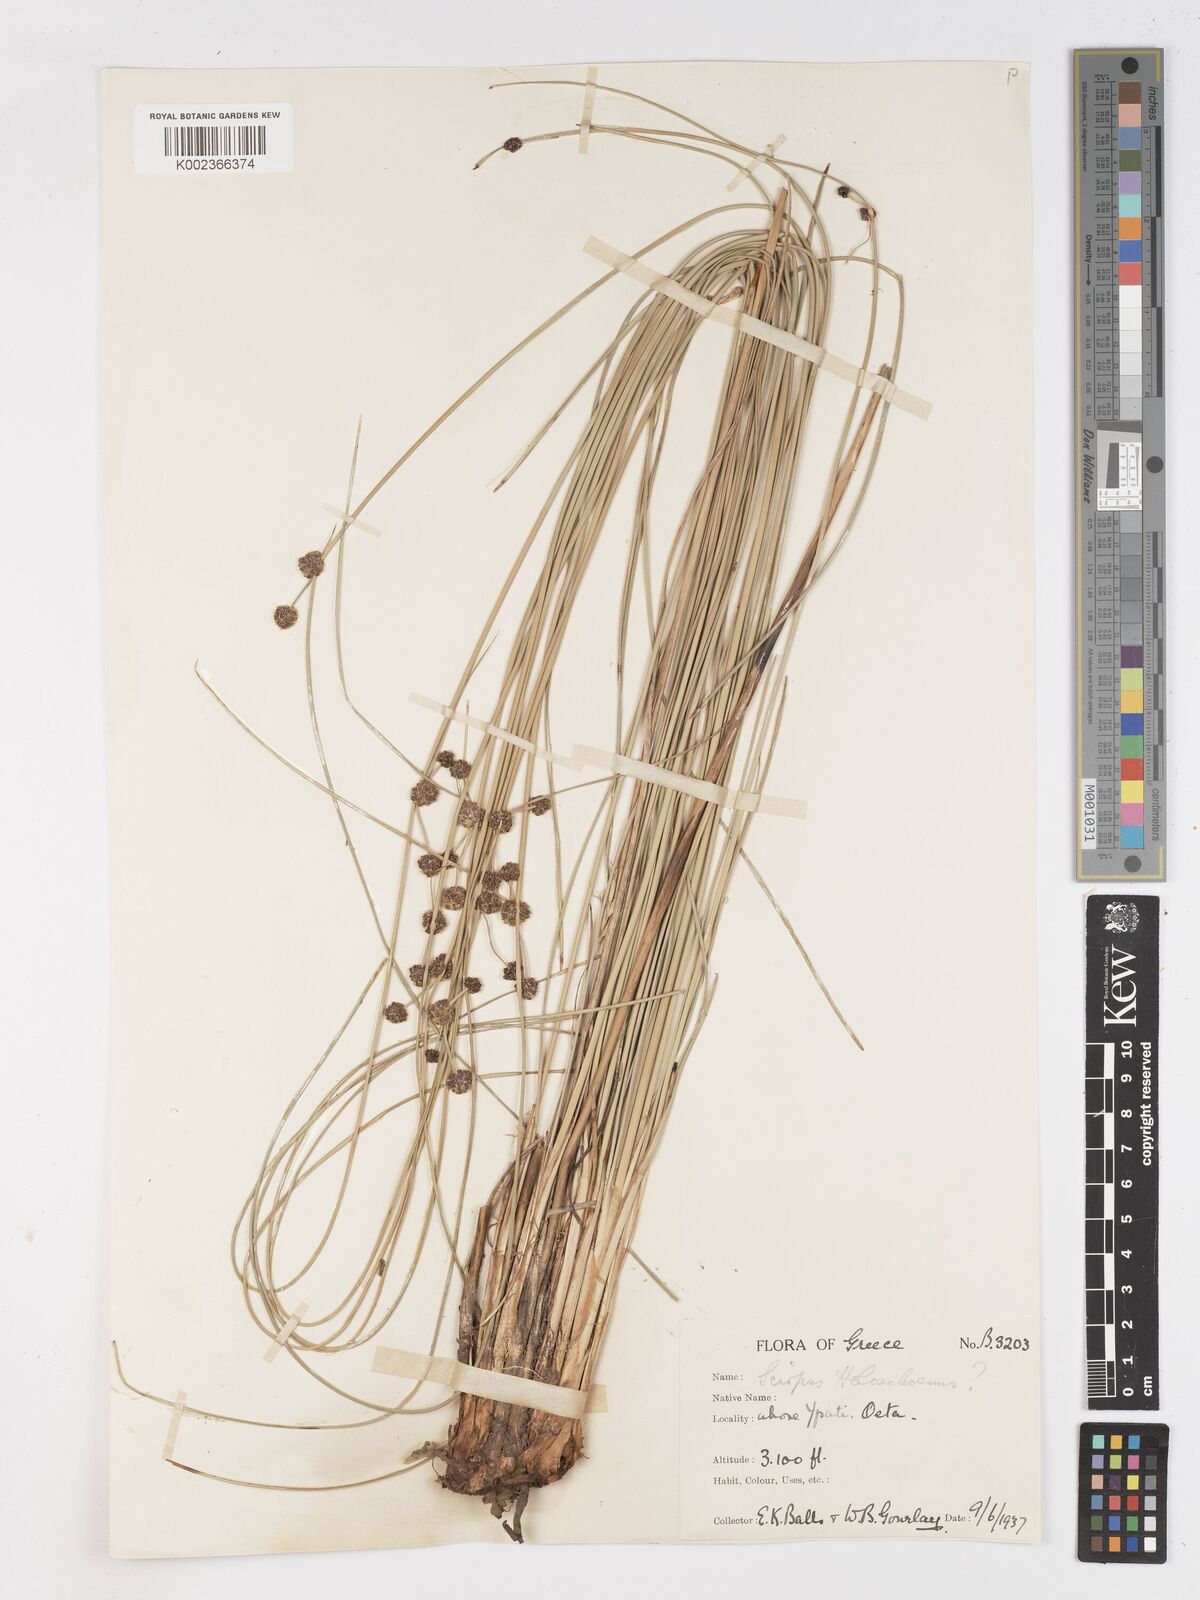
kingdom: Plantae
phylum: Tracheophyta
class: Liliopsida
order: Poales
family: Cyperaceae
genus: Scirpoides
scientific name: Scirpoides holoschoenus
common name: Round-headed club-rush
